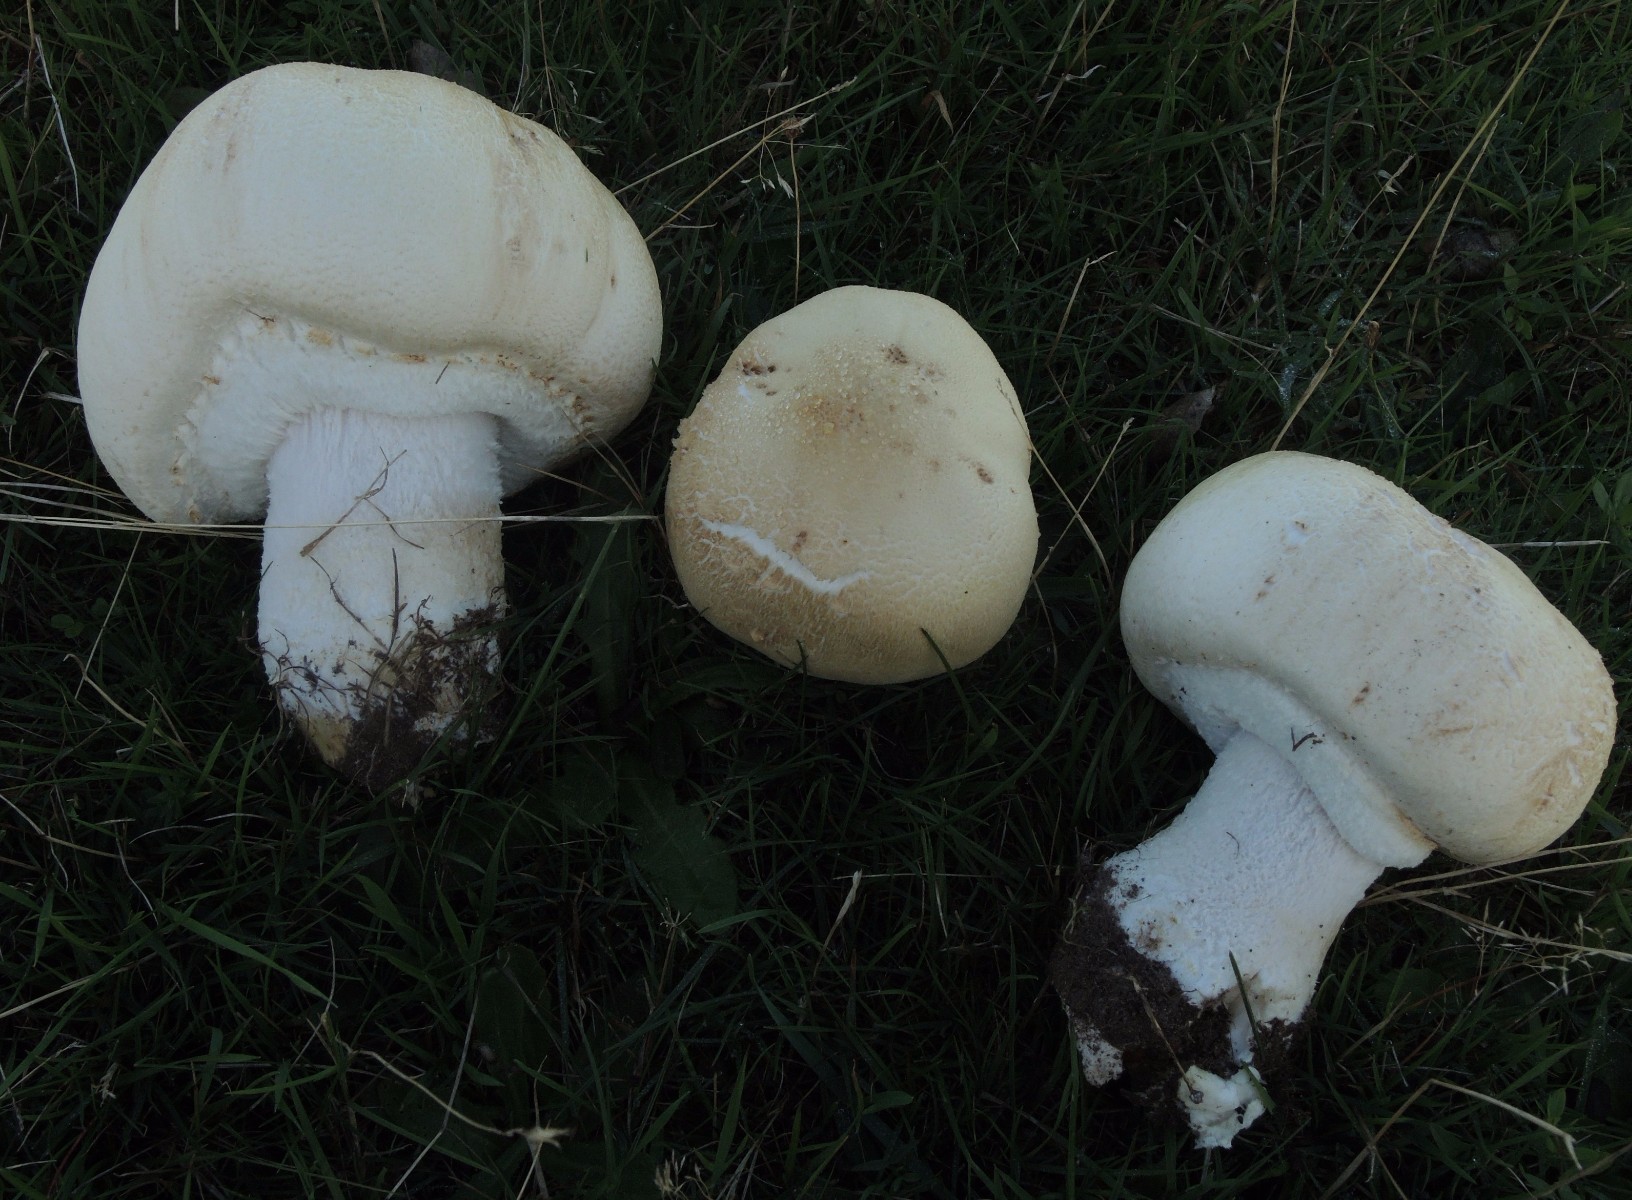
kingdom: Fungi
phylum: Basidiomycota
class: Agaricomycetes
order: Agaricales
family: Agaricaceae
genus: Agaricus
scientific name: Agaricus crocodilinus
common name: landsby-champignon
